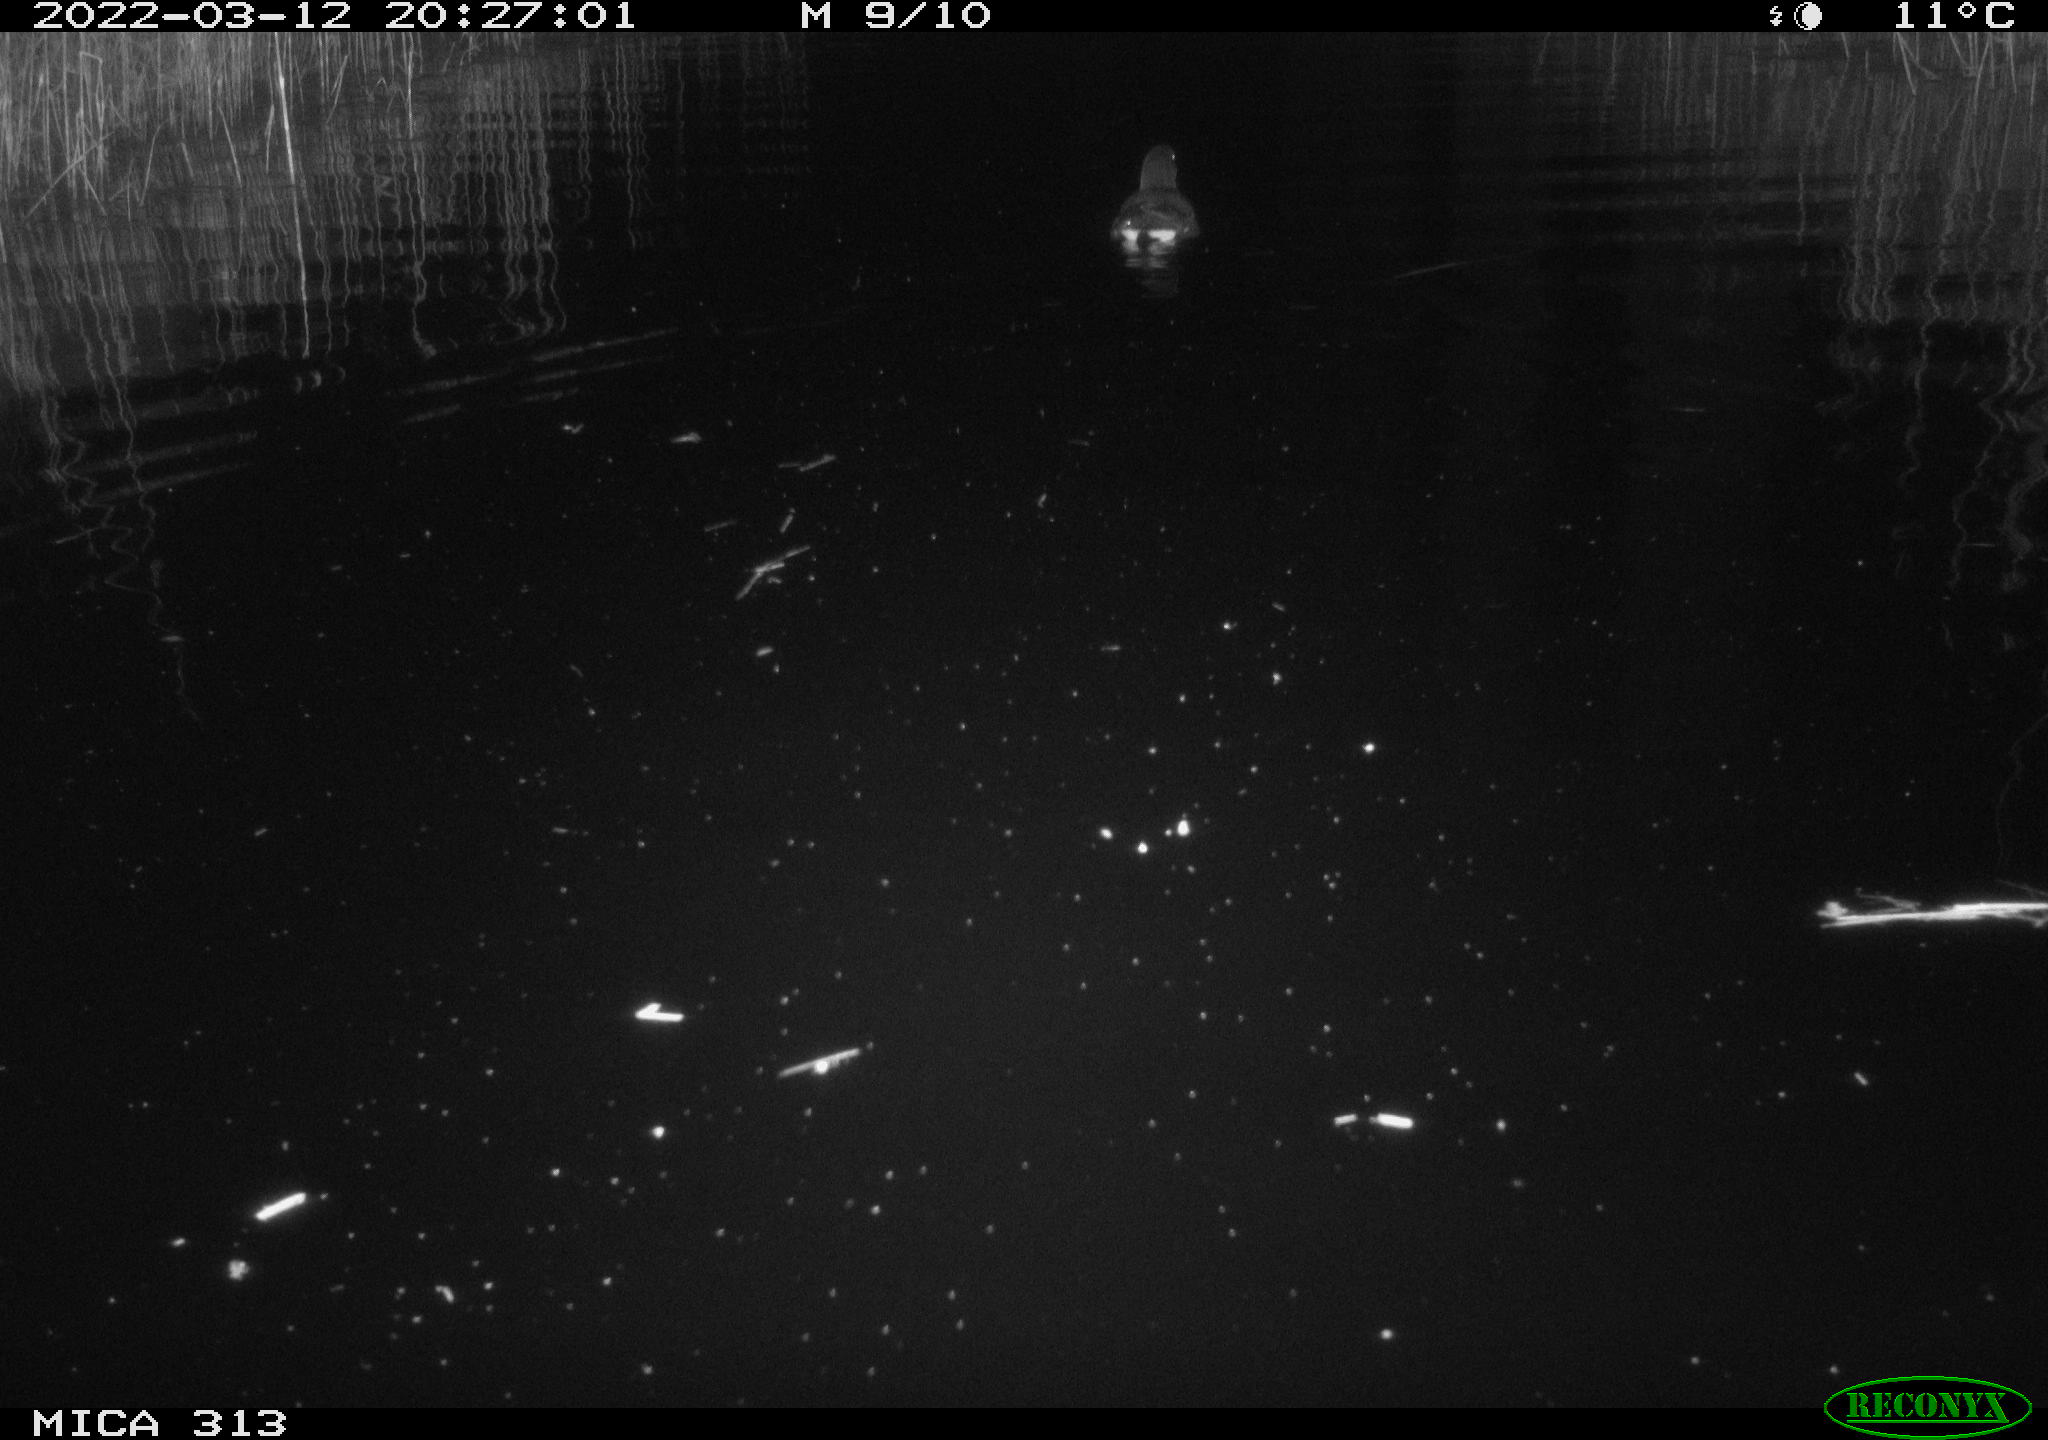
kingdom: Animalia
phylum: Chordata
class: Aves
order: Gruiformes
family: Rallidae
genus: Gallinula
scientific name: Gallinula chloropus
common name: Common moorhen
